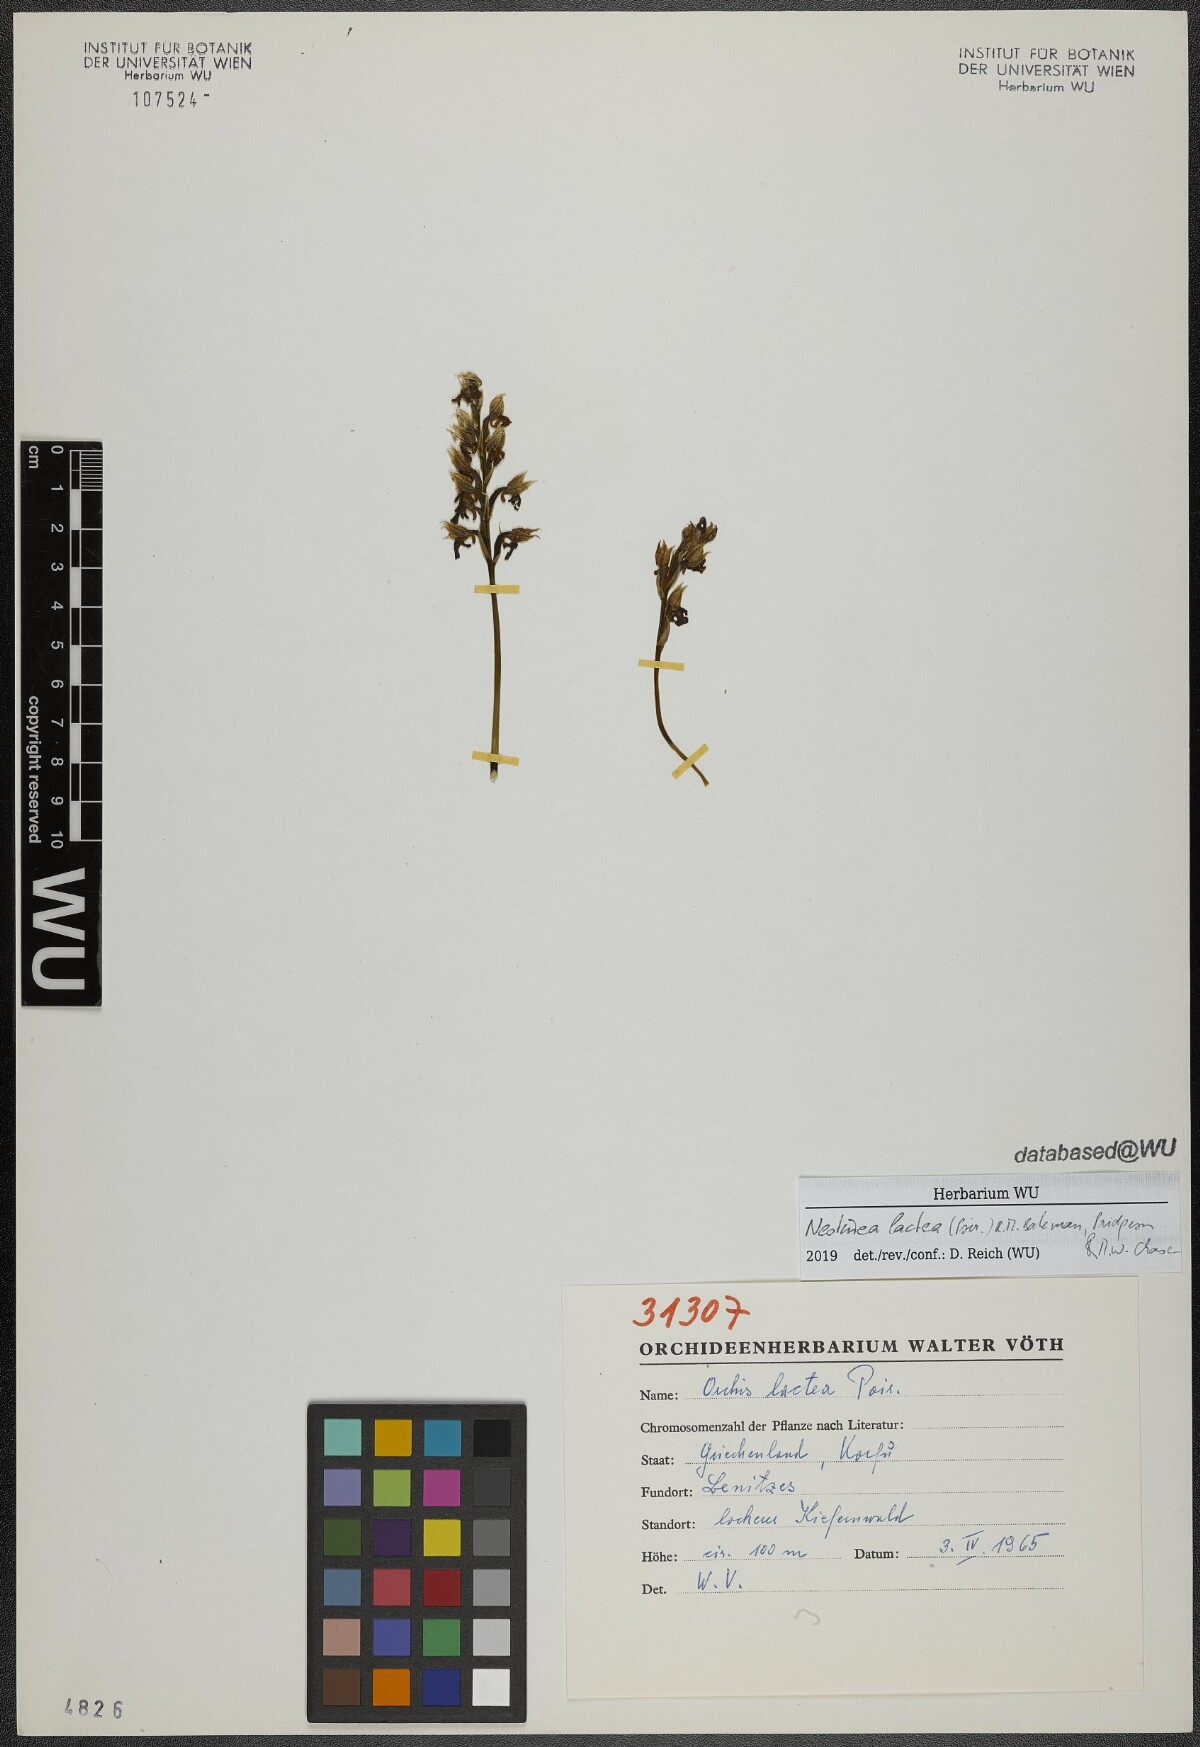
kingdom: Plantae
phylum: Tracheophyta
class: Liliopsida
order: Asparagales
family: Orchidaceae
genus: Neotinea
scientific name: Neotinea lactea
